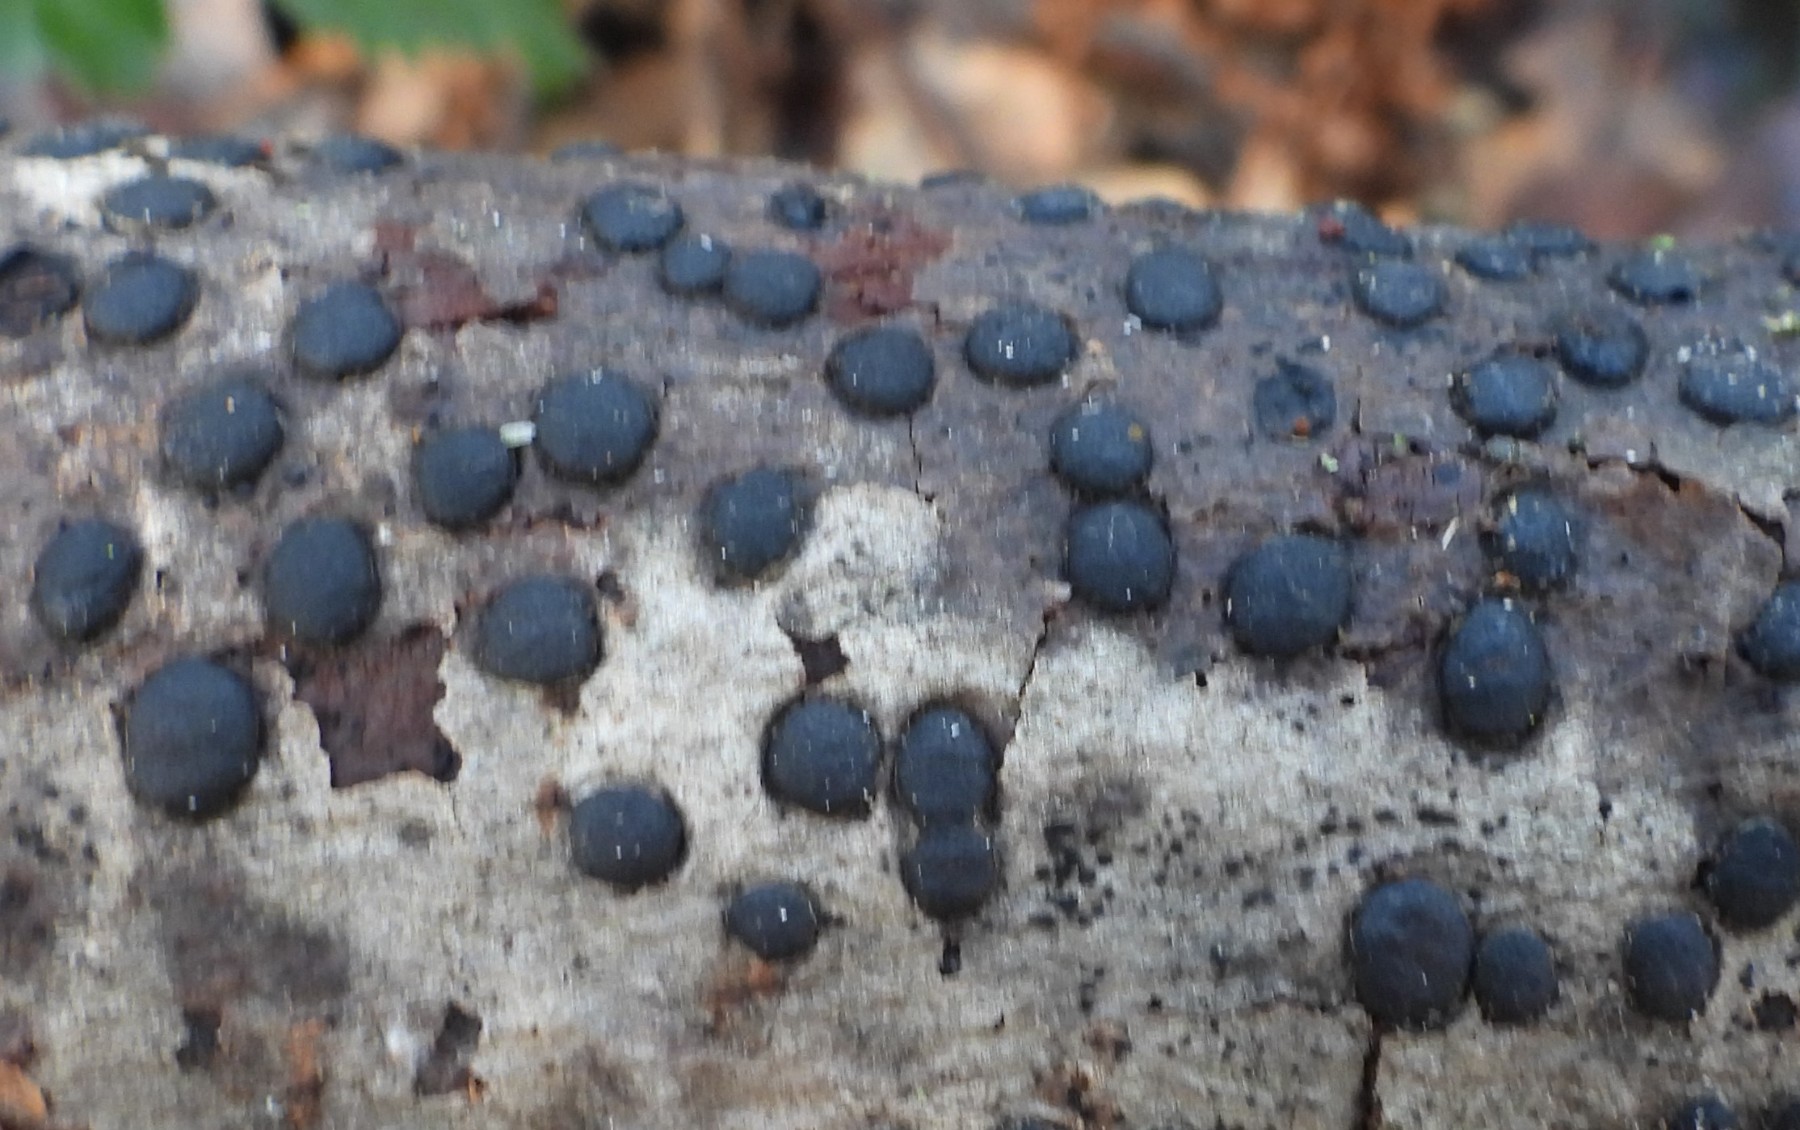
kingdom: Fungi
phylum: Ascomycota
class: Sordariomycetes
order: Xylariales
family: Diatrypaceae
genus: Diatrype
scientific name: Diatrype bullata
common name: pile-kulskorpe
